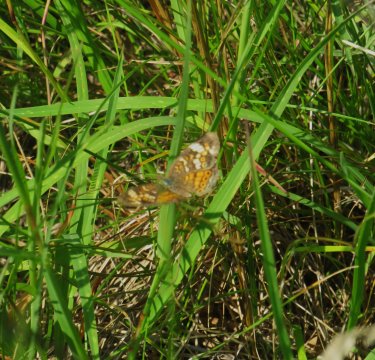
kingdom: Animalia
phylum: Arthropoda
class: Insecta
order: Lepidoptera
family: Nymphalidae
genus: Phyciodes
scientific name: Phyciodes tharos
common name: Pearl Crescent
